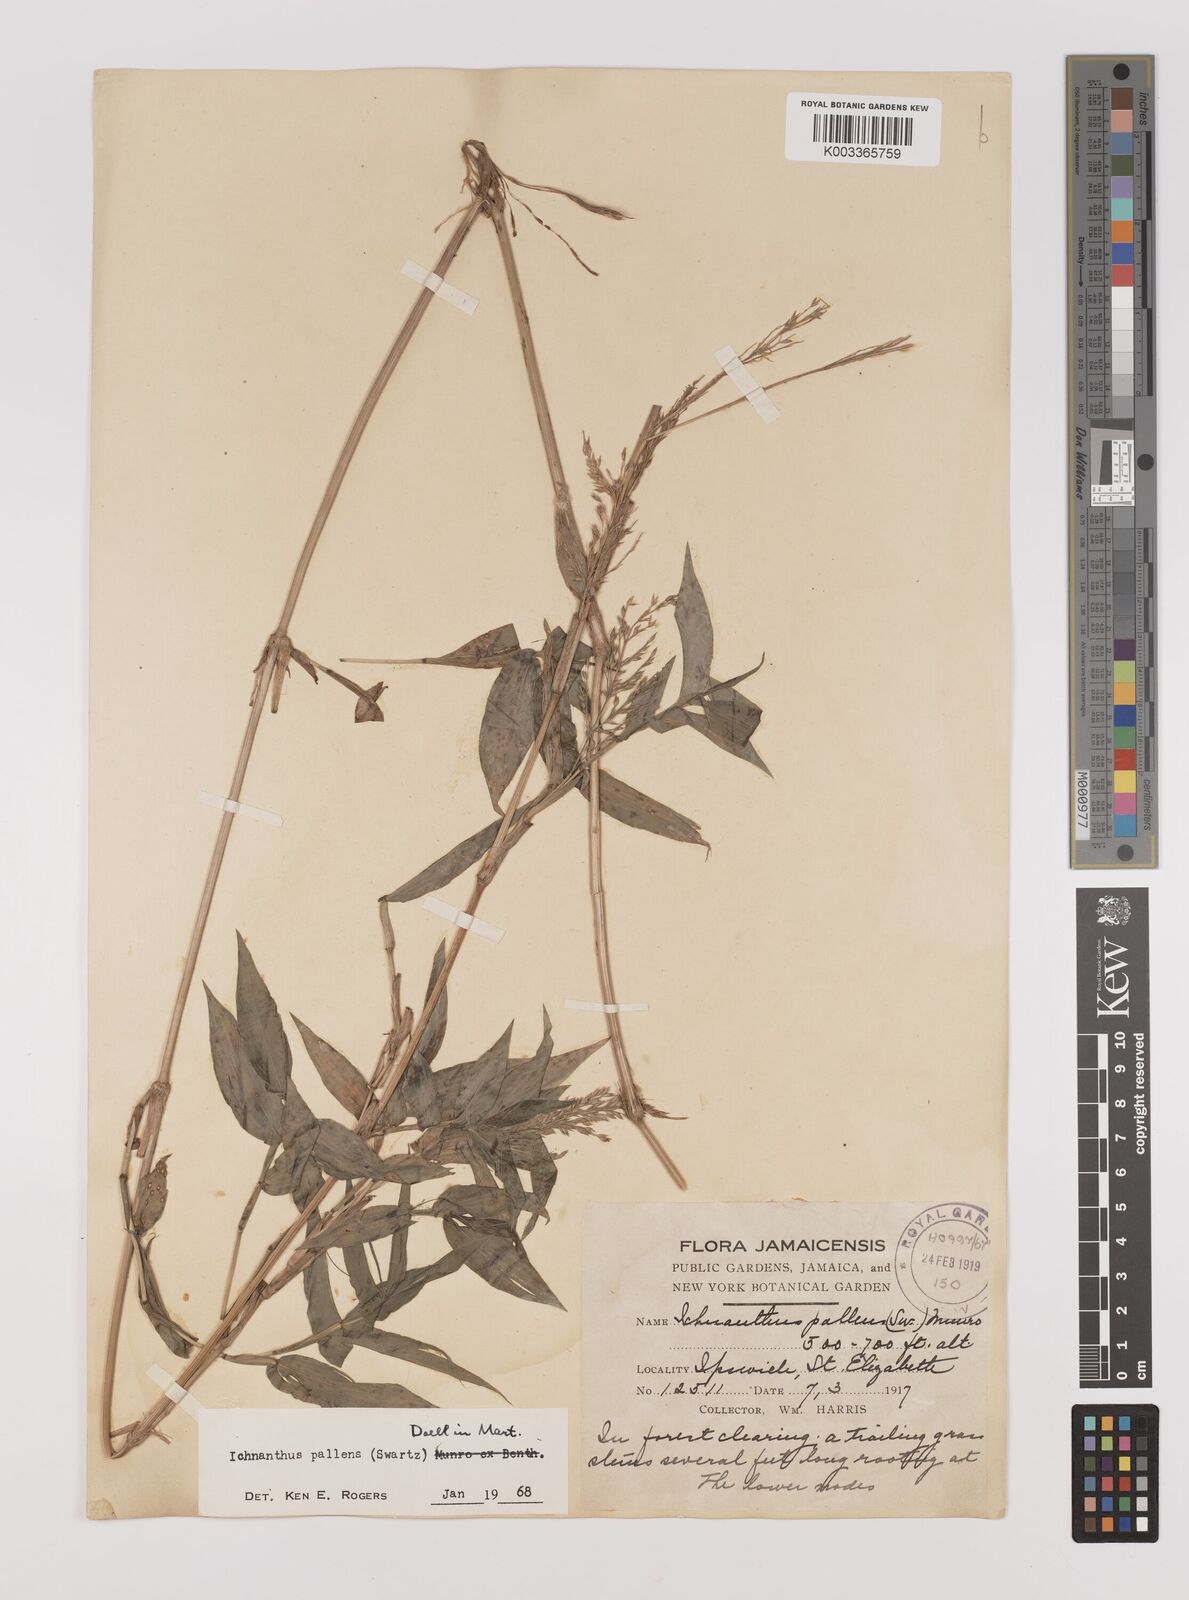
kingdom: Plantae
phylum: Tracheophyta
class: Liliopsida
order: Poales
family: Poaceae
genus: Ichnanthus
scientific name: Ichnanthus pallens
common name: Water grass
